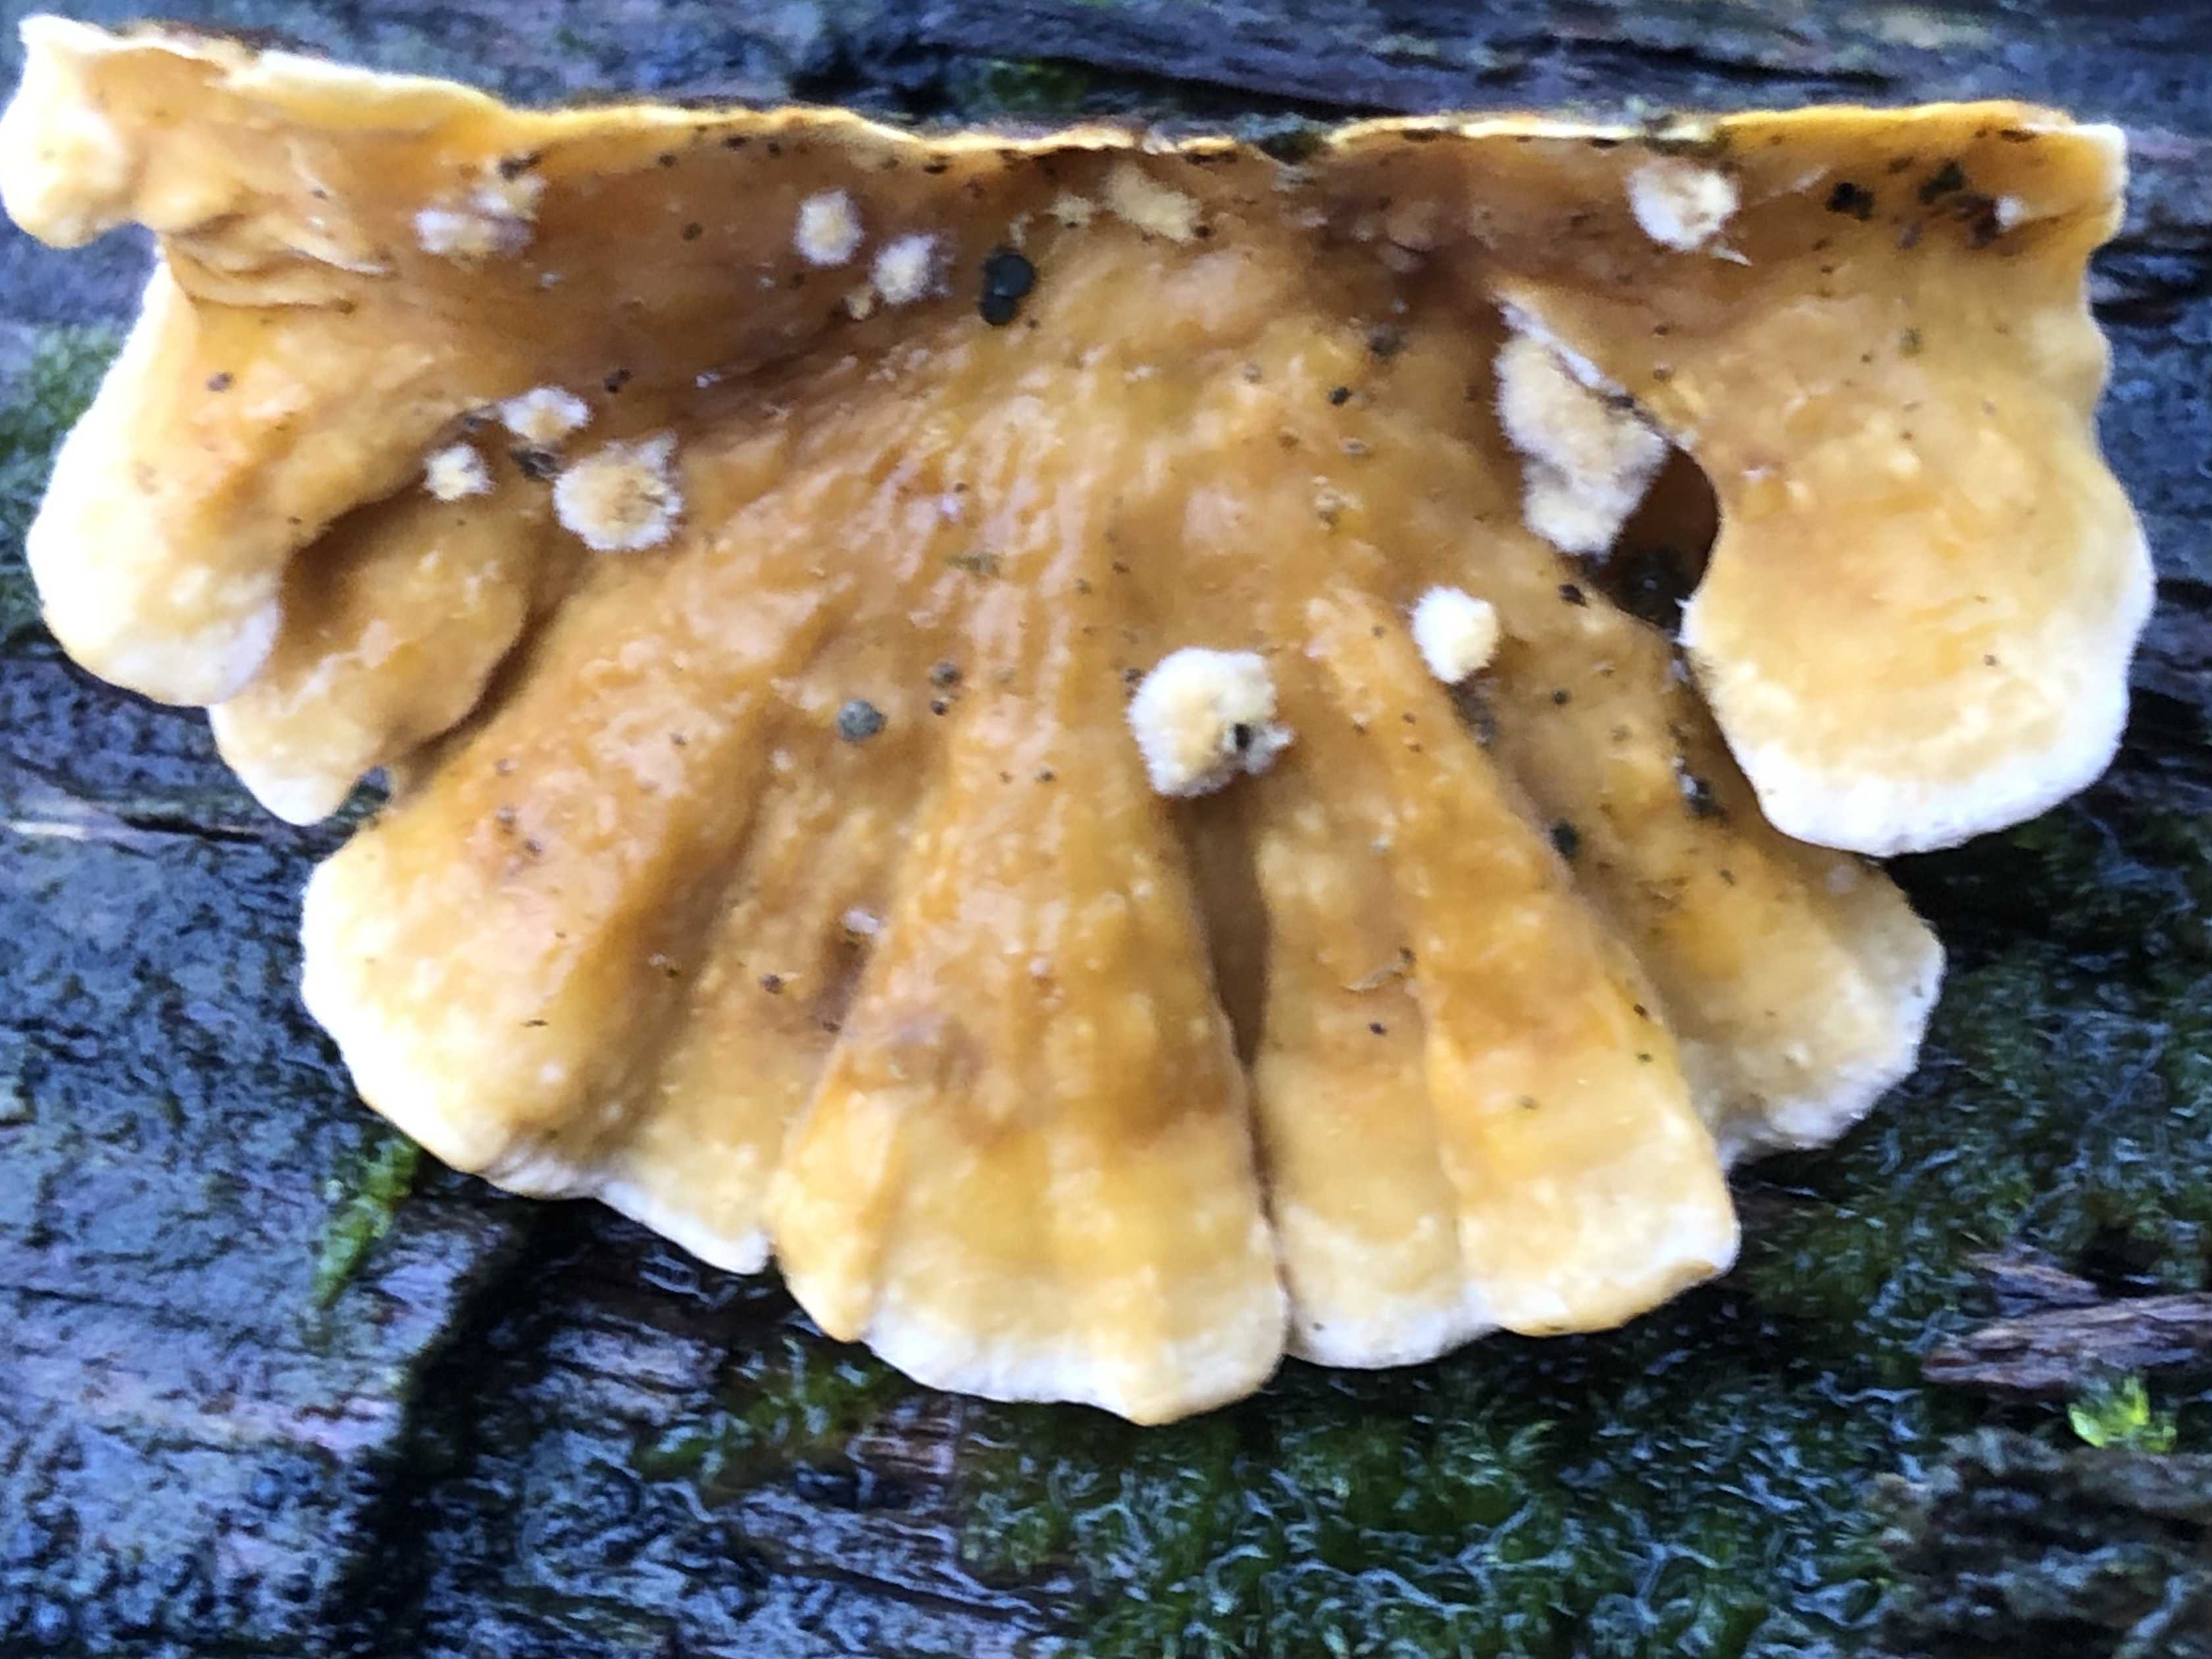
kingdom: Fungi
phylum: Basidiomycota
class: Agaricomycetes
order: Russulales
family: Stereaceae
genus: Stereum
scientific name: Stereum hirsutum
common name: håret lædersvamp
